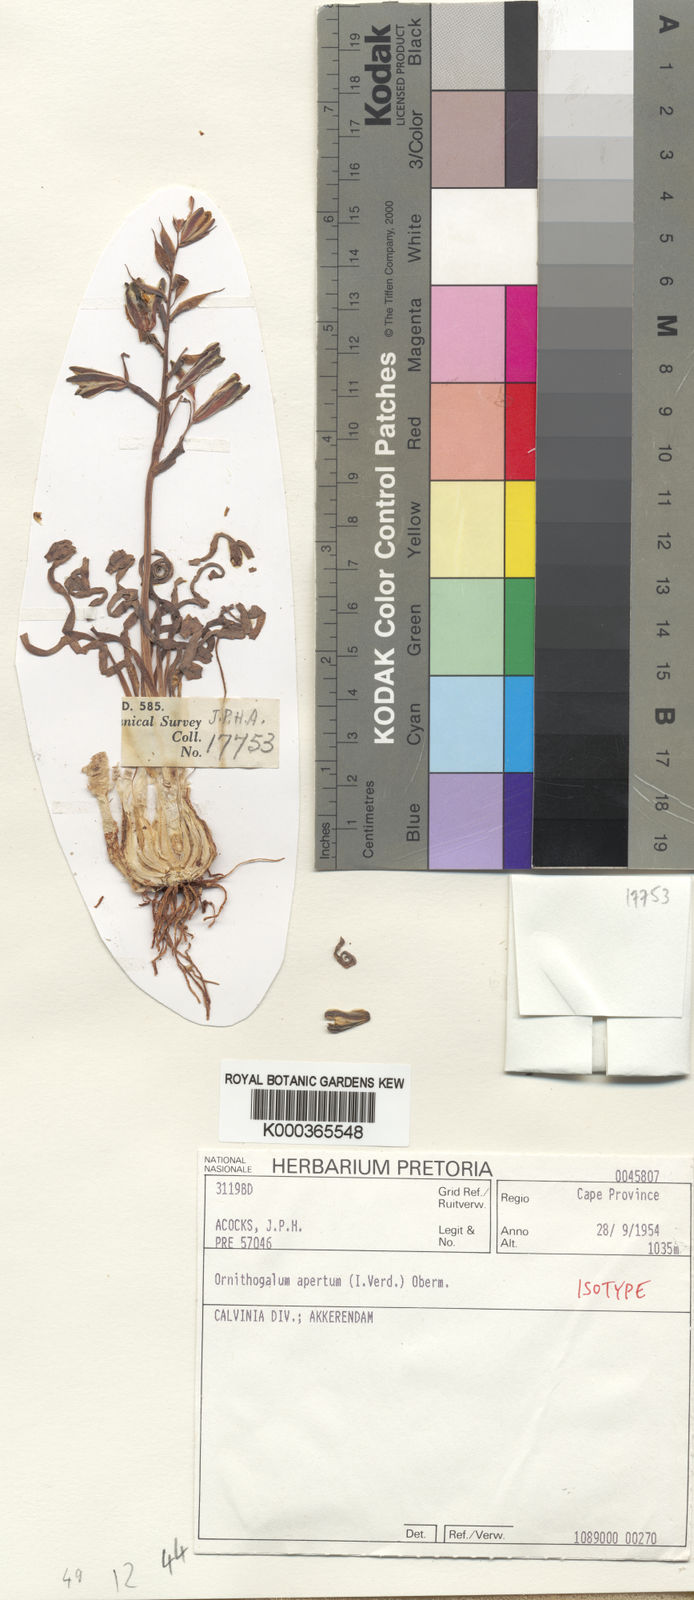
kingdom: Plantae
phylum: Tracheophyta
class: Liliopsida
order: Asparagales
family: Asparagaceae
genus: Albuca
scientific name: Albuca concordiana
